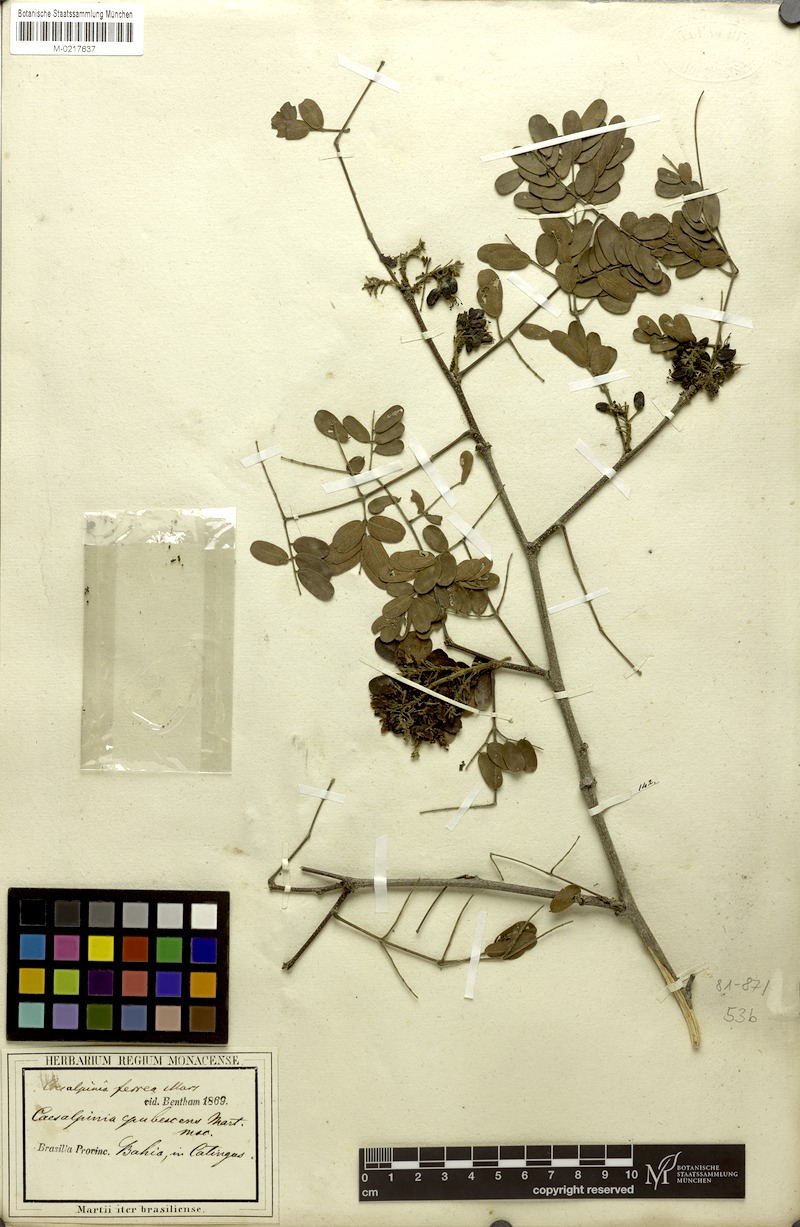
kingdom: Plantae
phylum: Tracheophyta
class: Magnoliopsida
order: Fabales
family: Fabaceae
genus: Libidibia
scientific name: Libidibia ferrea
